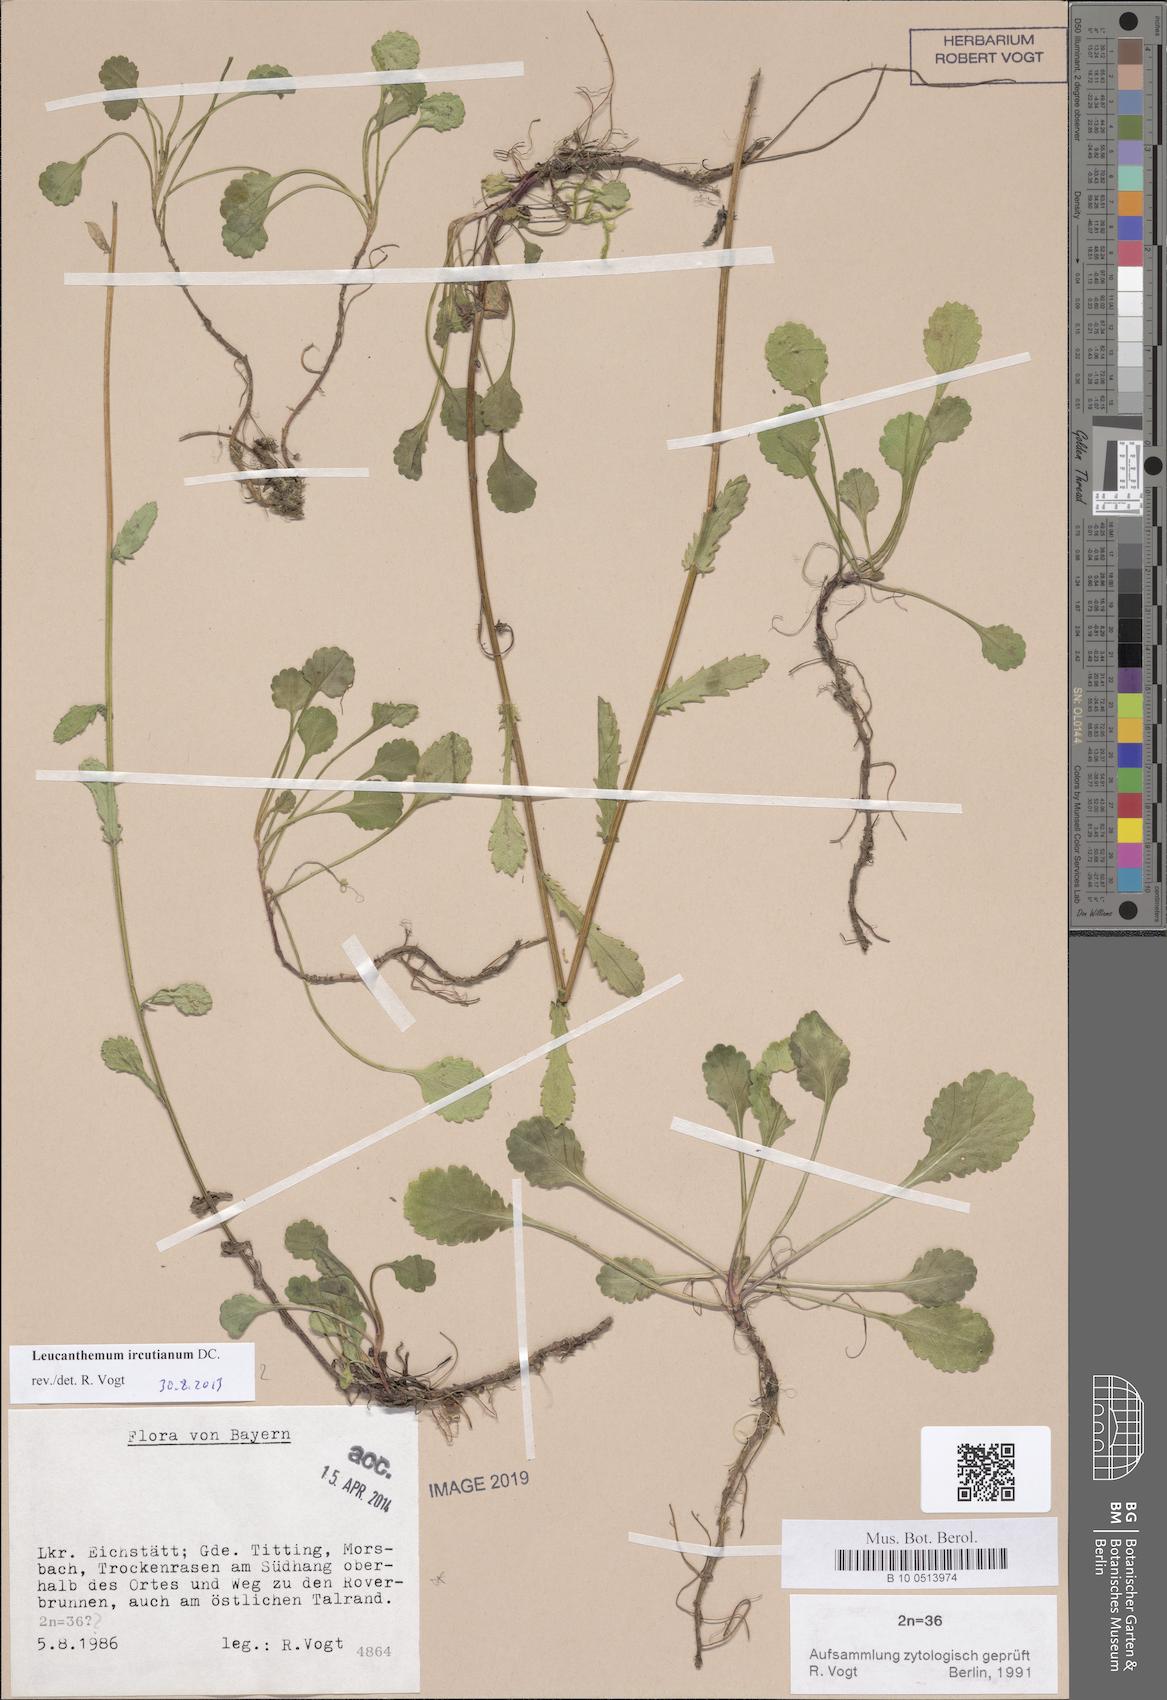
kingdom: Plantae
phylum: Tracheophyta
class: Magnoliopsida
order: Asterales
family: Asteraceae
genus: Leucanthemum
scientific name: Leucanthemum ircutianum
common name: Daisy
